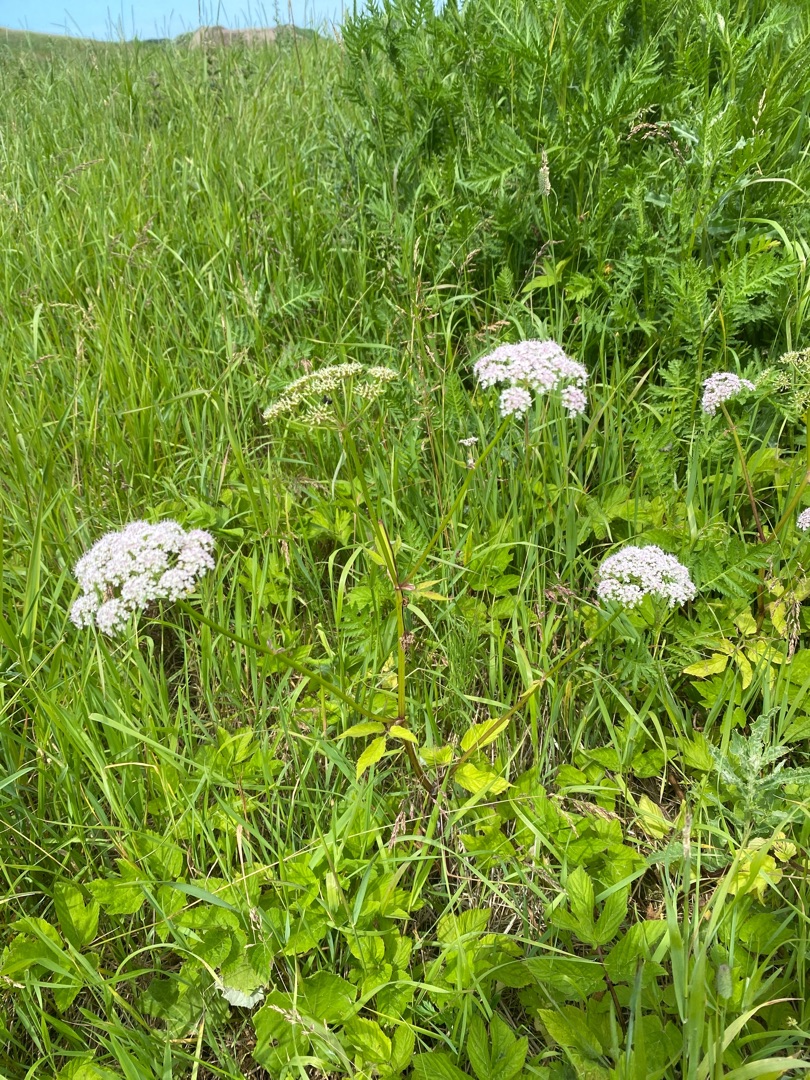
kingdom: Plantae
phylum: Tracheophyta
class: Magnoliopsida
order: Apiales
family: Apiaceae
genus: Aegopodium
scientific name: Aegopodium podagraria
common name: Skvalderkål
